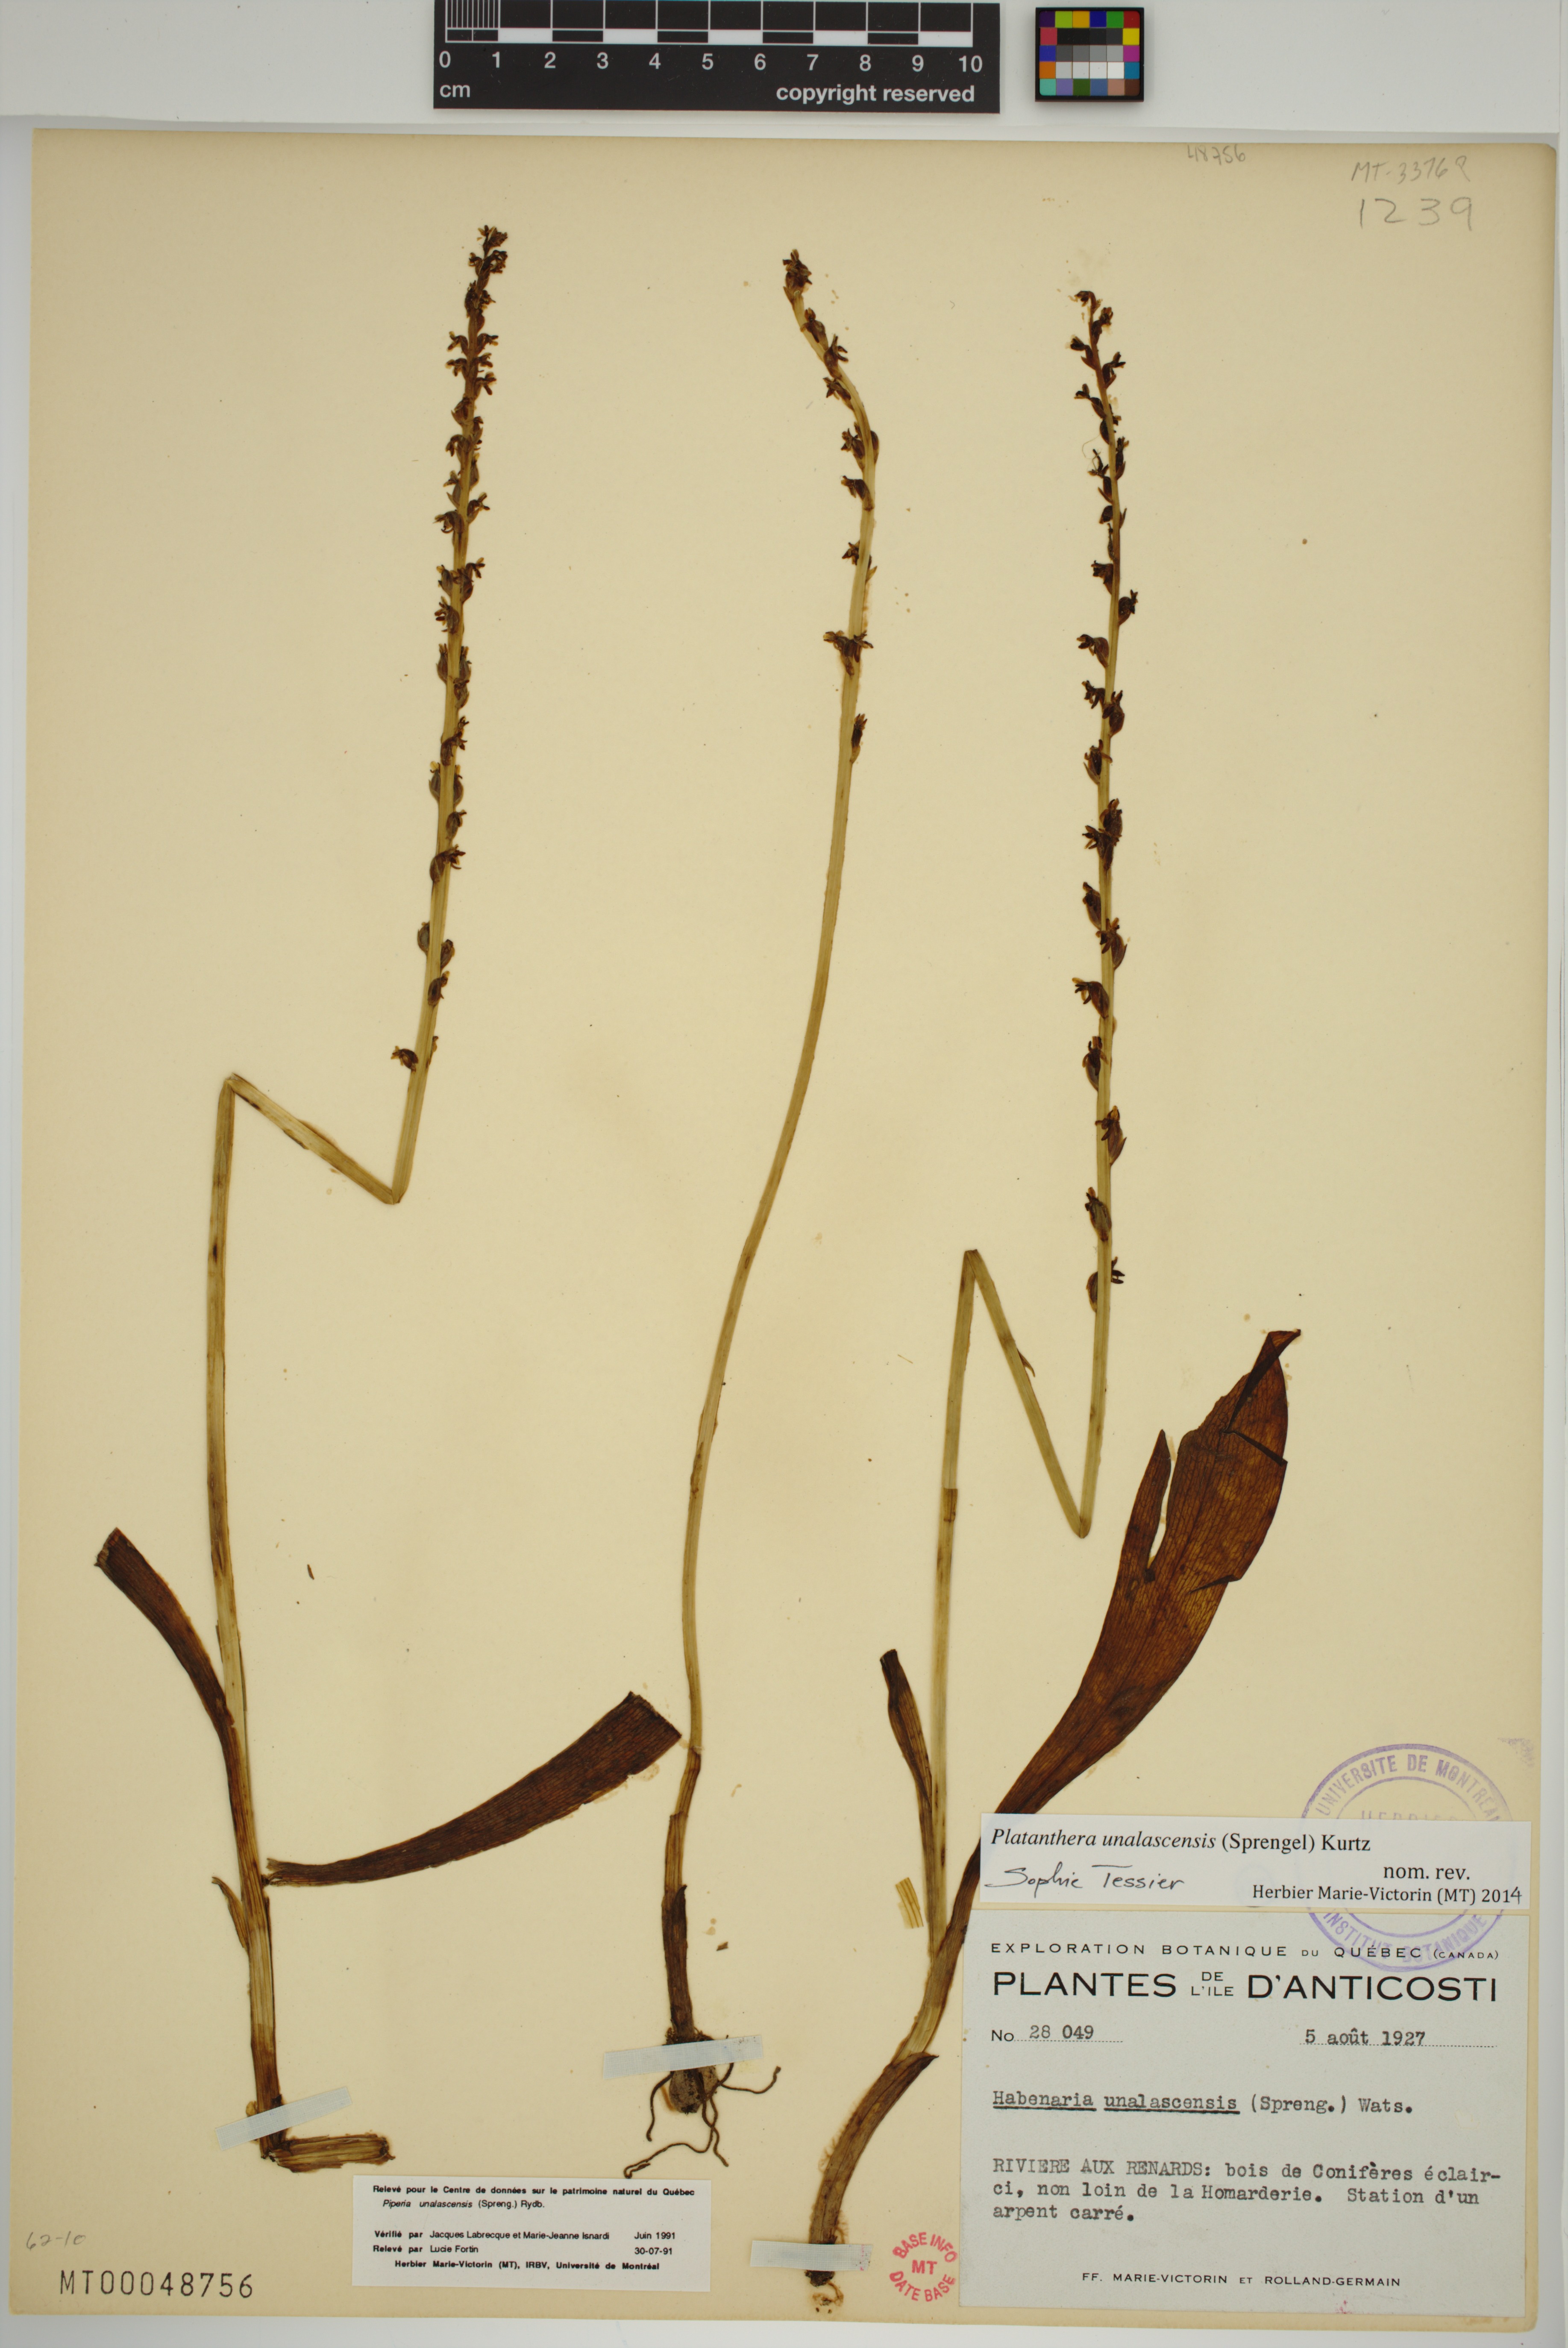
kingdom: Plantae
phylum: Tracheophyta
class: Liliopsida
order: Asparagales
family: Orchidaceae
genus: Platanthera
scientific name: Platanthera unalascensis
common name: Alaska bog orchid
